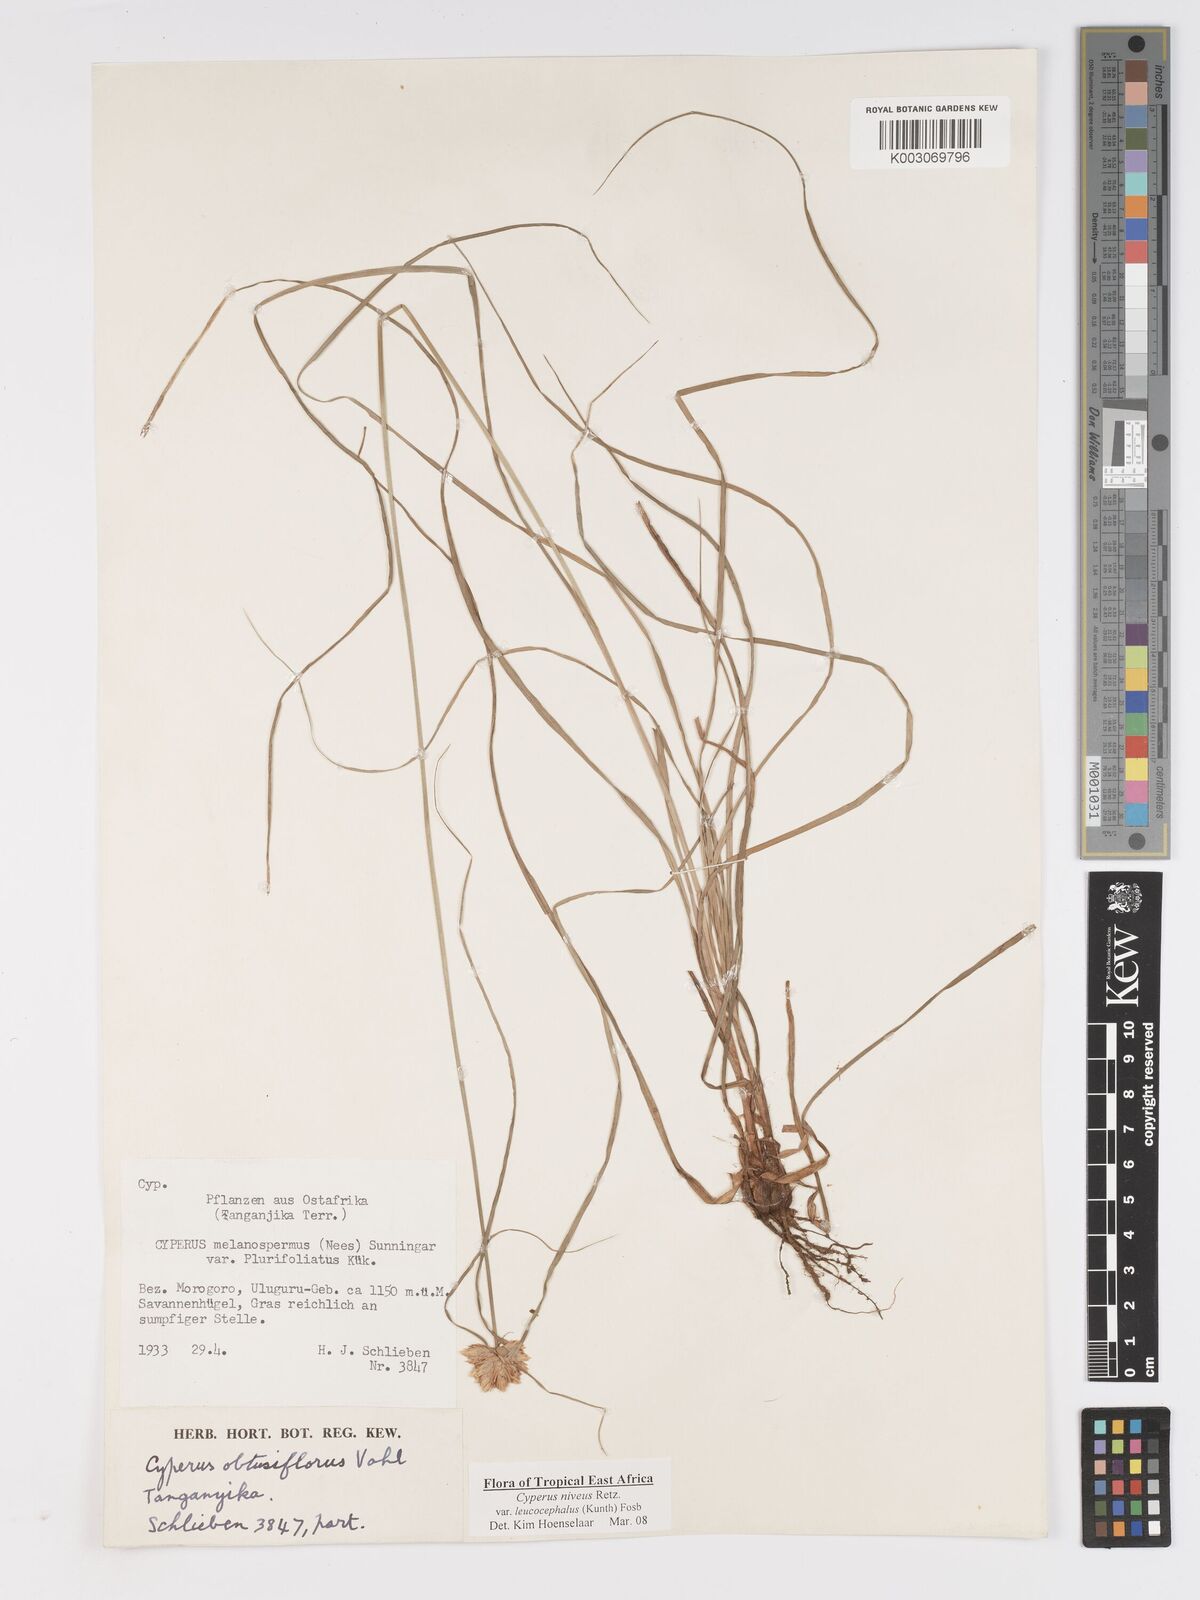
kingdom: Plantae
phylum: Tracheophyta
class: Liliopsida
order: Poales
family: Cyperaceae
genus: Cyperus
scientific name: Cyperus niveus
